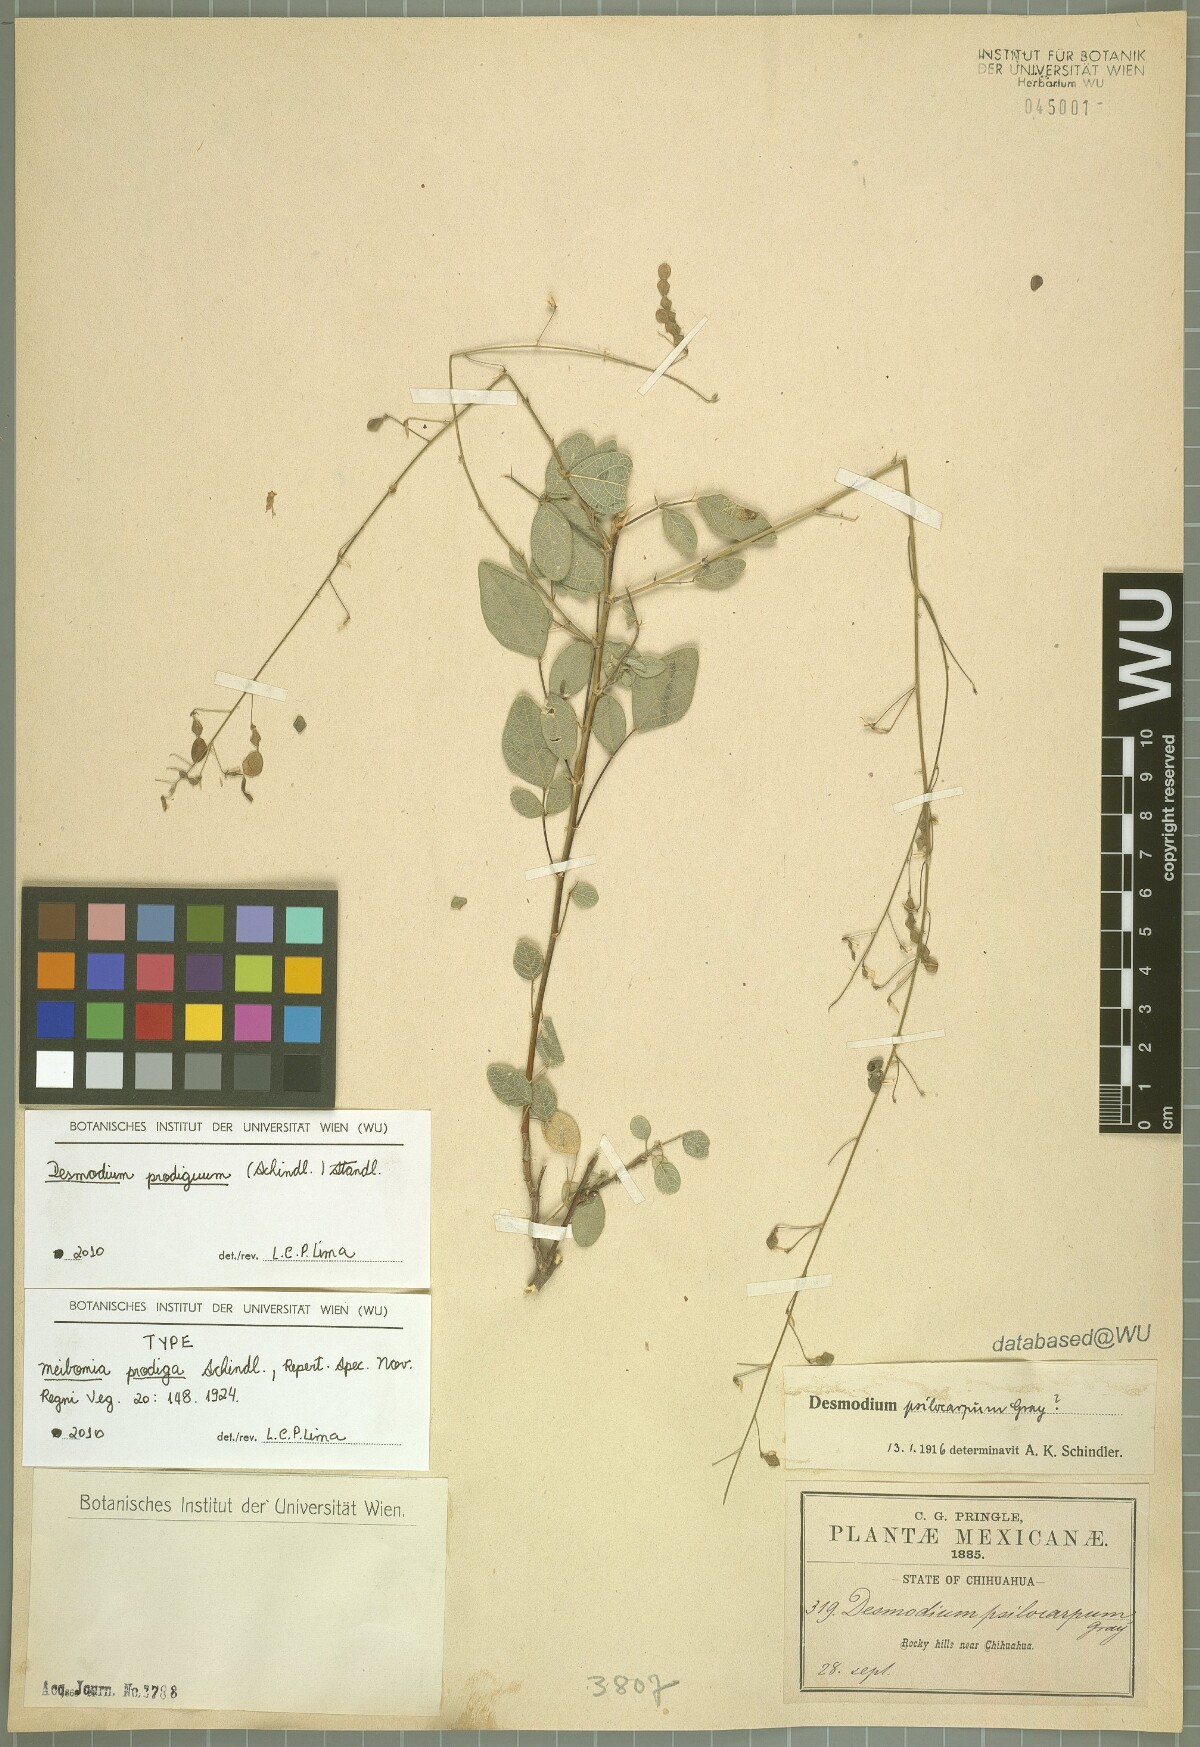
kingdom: Plantae
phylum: Tracheophyta
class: Magnoliopsida
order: Fabales
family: Fabaceae
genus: Desmodium
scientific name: Desmodium prodigum
